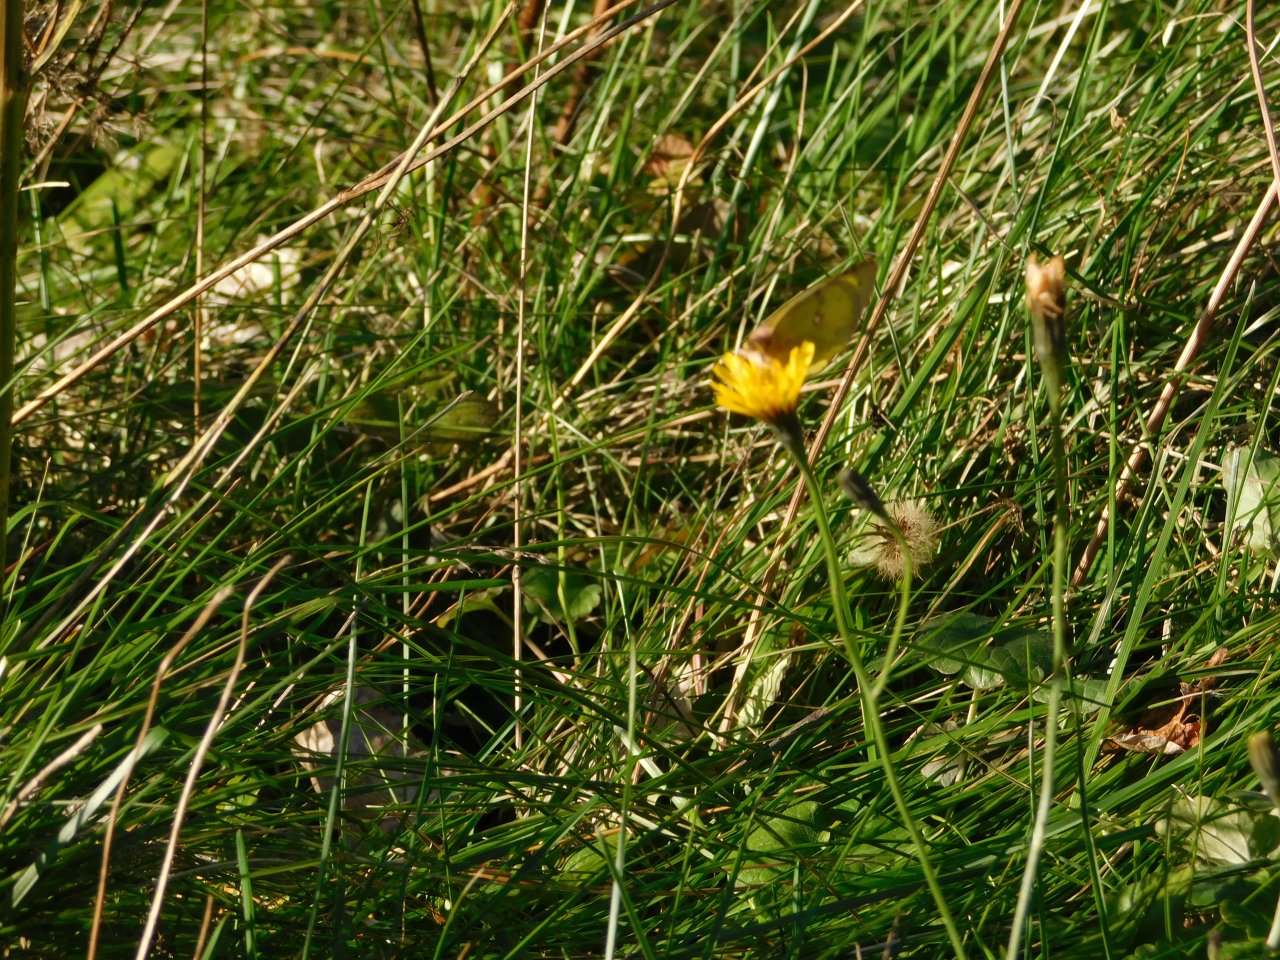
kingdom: Animalia
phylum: Arthropoda
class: Insecta
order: Lepidoptera
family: Pieridae
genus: Colias
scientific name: Colias philodice
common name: Clouded Sulphur
